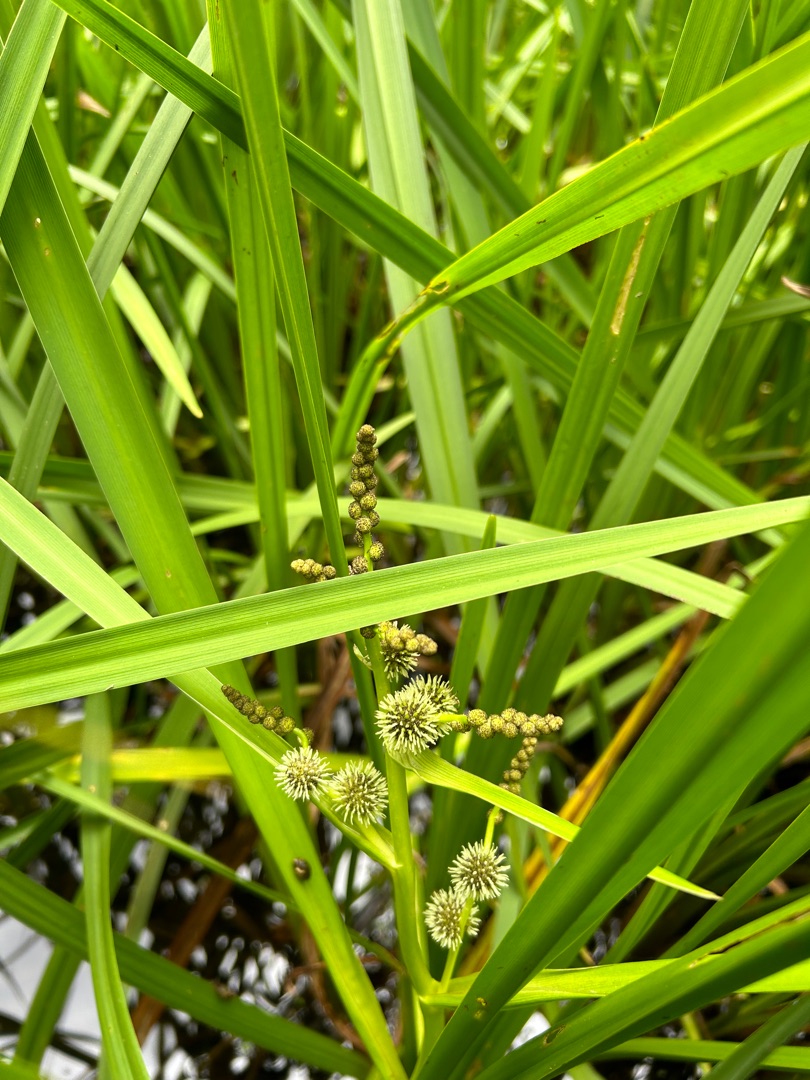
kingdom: Plantae
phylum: Tracheophyta
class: Liliopsida
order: Poales
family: Typhaceae
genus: Sparganium
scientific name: Sparganium erectum
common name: Grenet pindsvineknop
